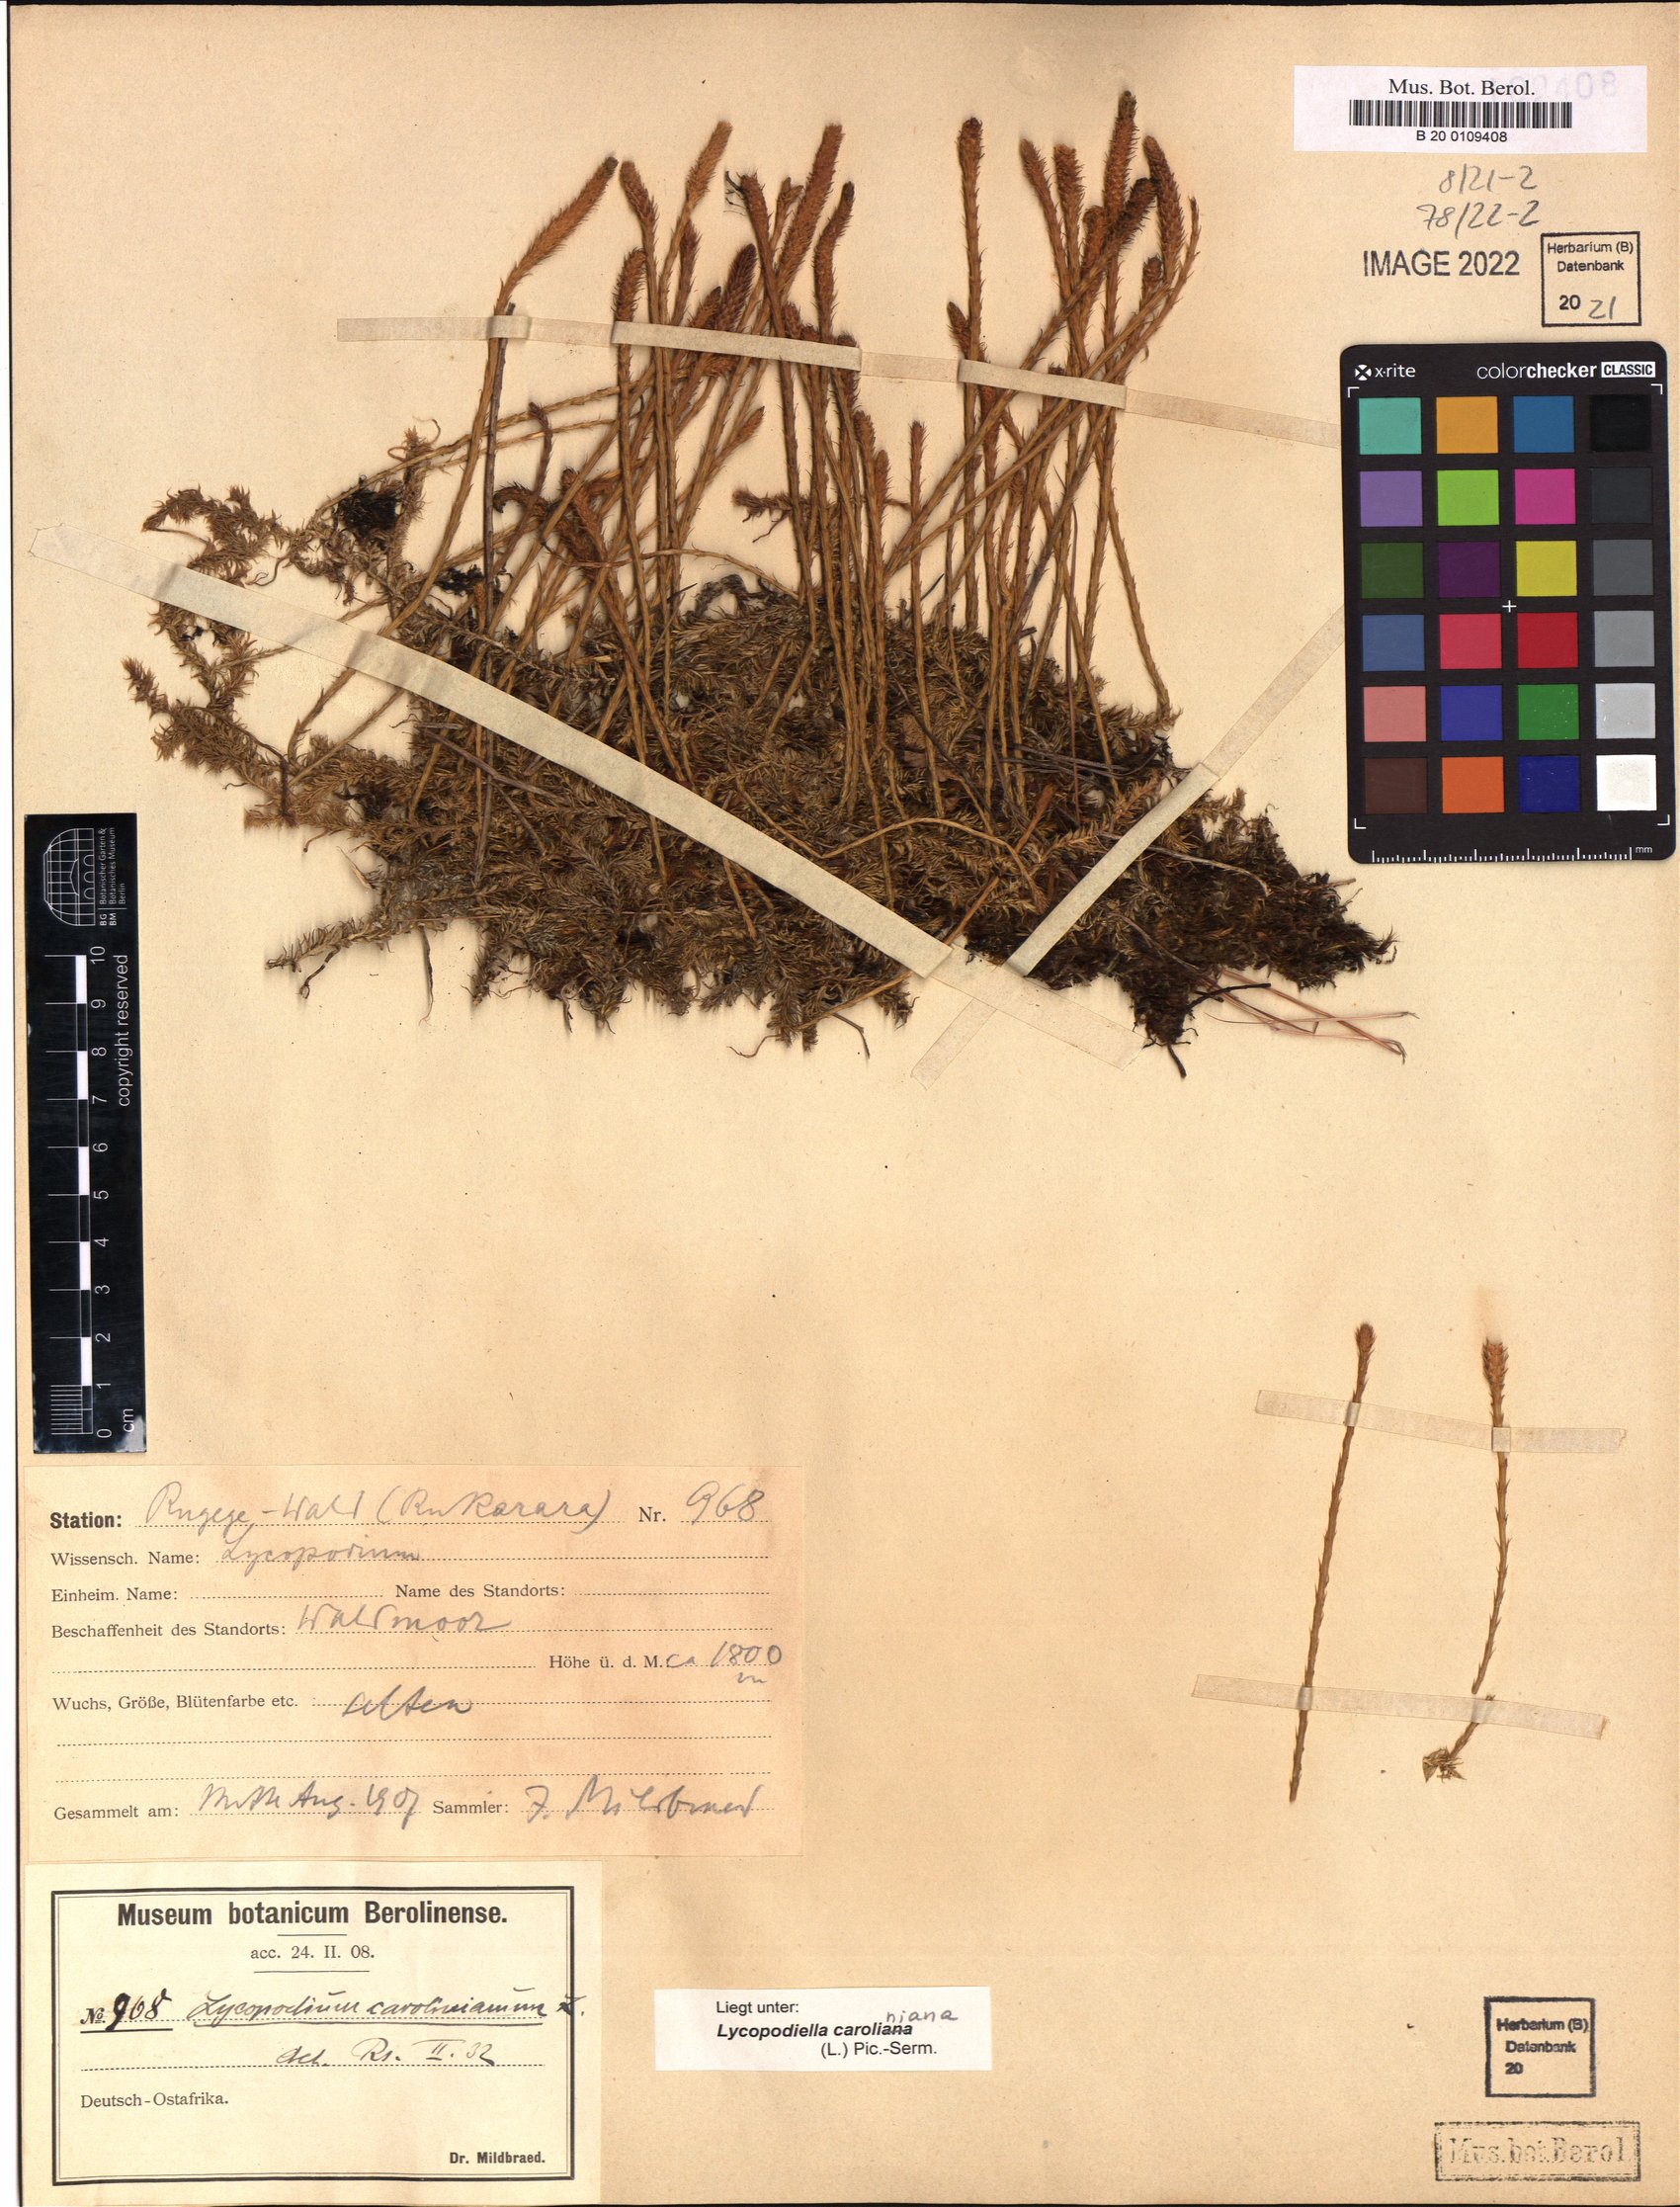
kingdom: Plantae
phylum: Tracheophyta
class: Lycopodiopsida
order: Lycopodiales
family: Lycopodiaceae
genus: Pseudolycopodiella
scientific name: Pseudolycopodiella caroliniana
